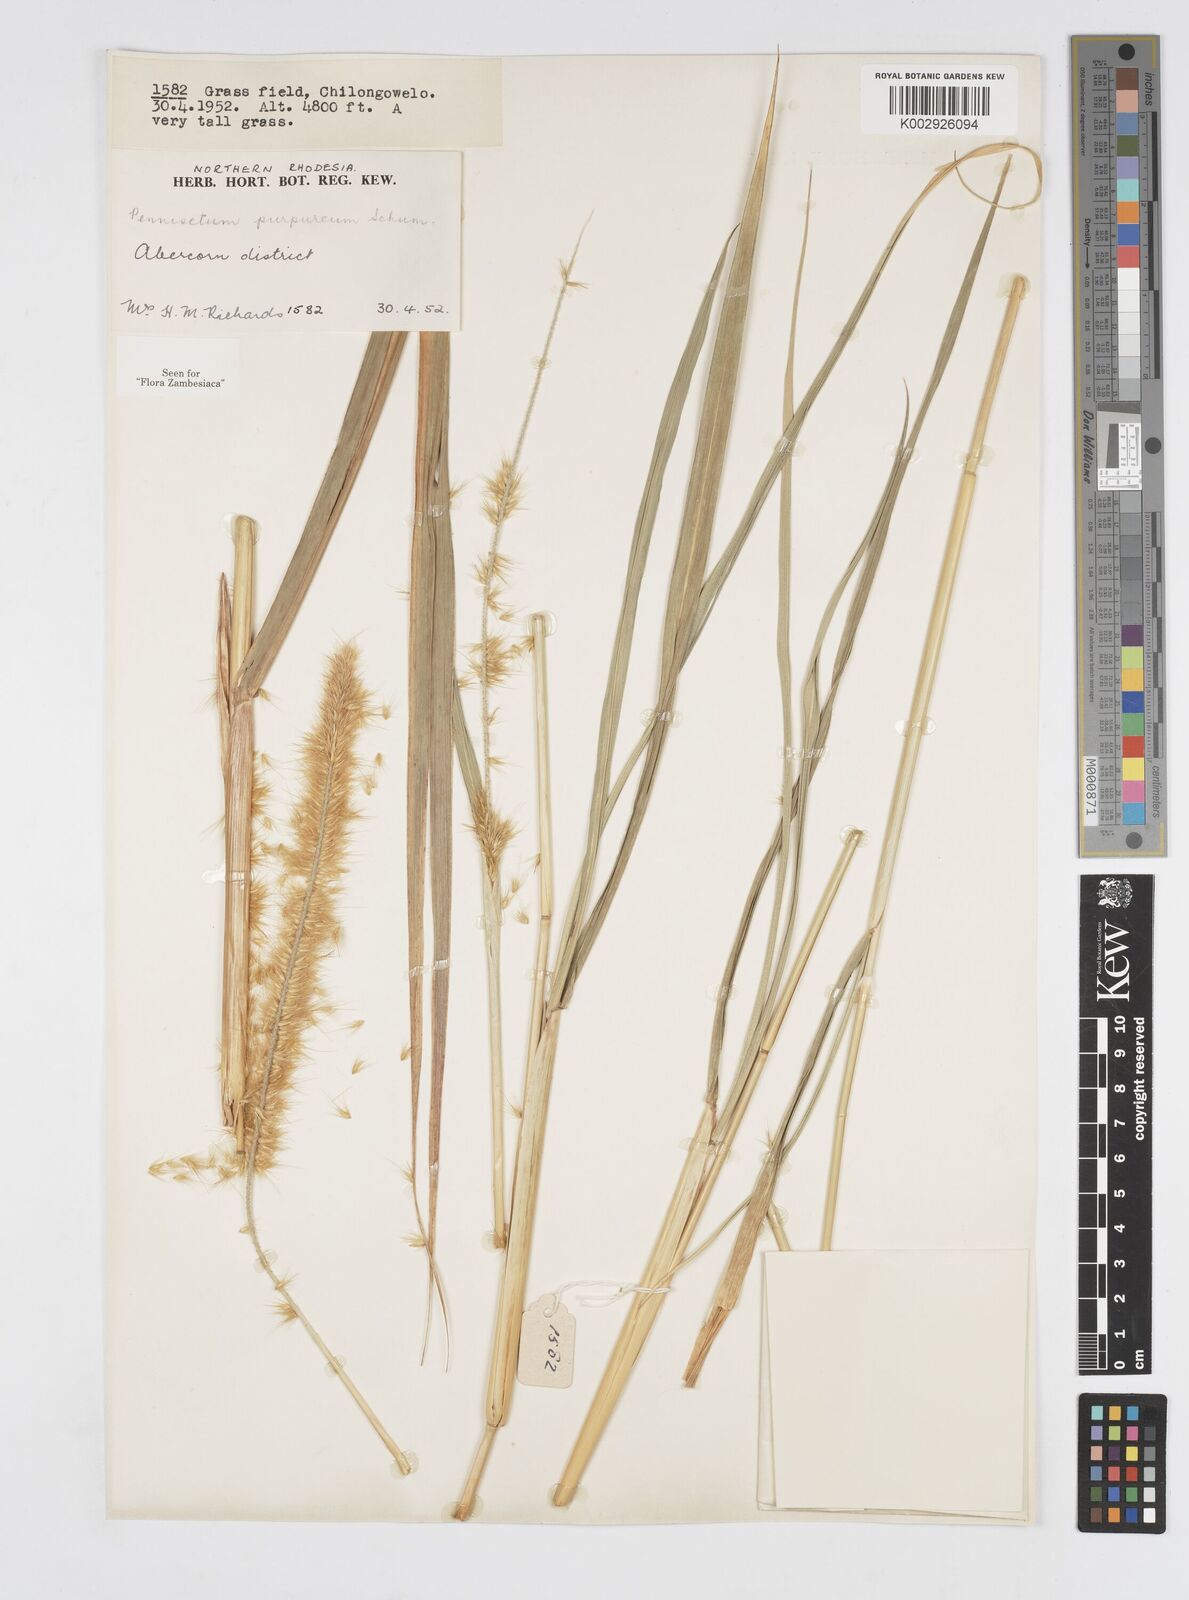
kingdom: Plantae
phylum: Tracheophyta
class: Liliopsida
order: Poales
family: Poaceae
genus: Cenchrus
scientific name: Cenchrus purpureus
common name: Elephant grass
